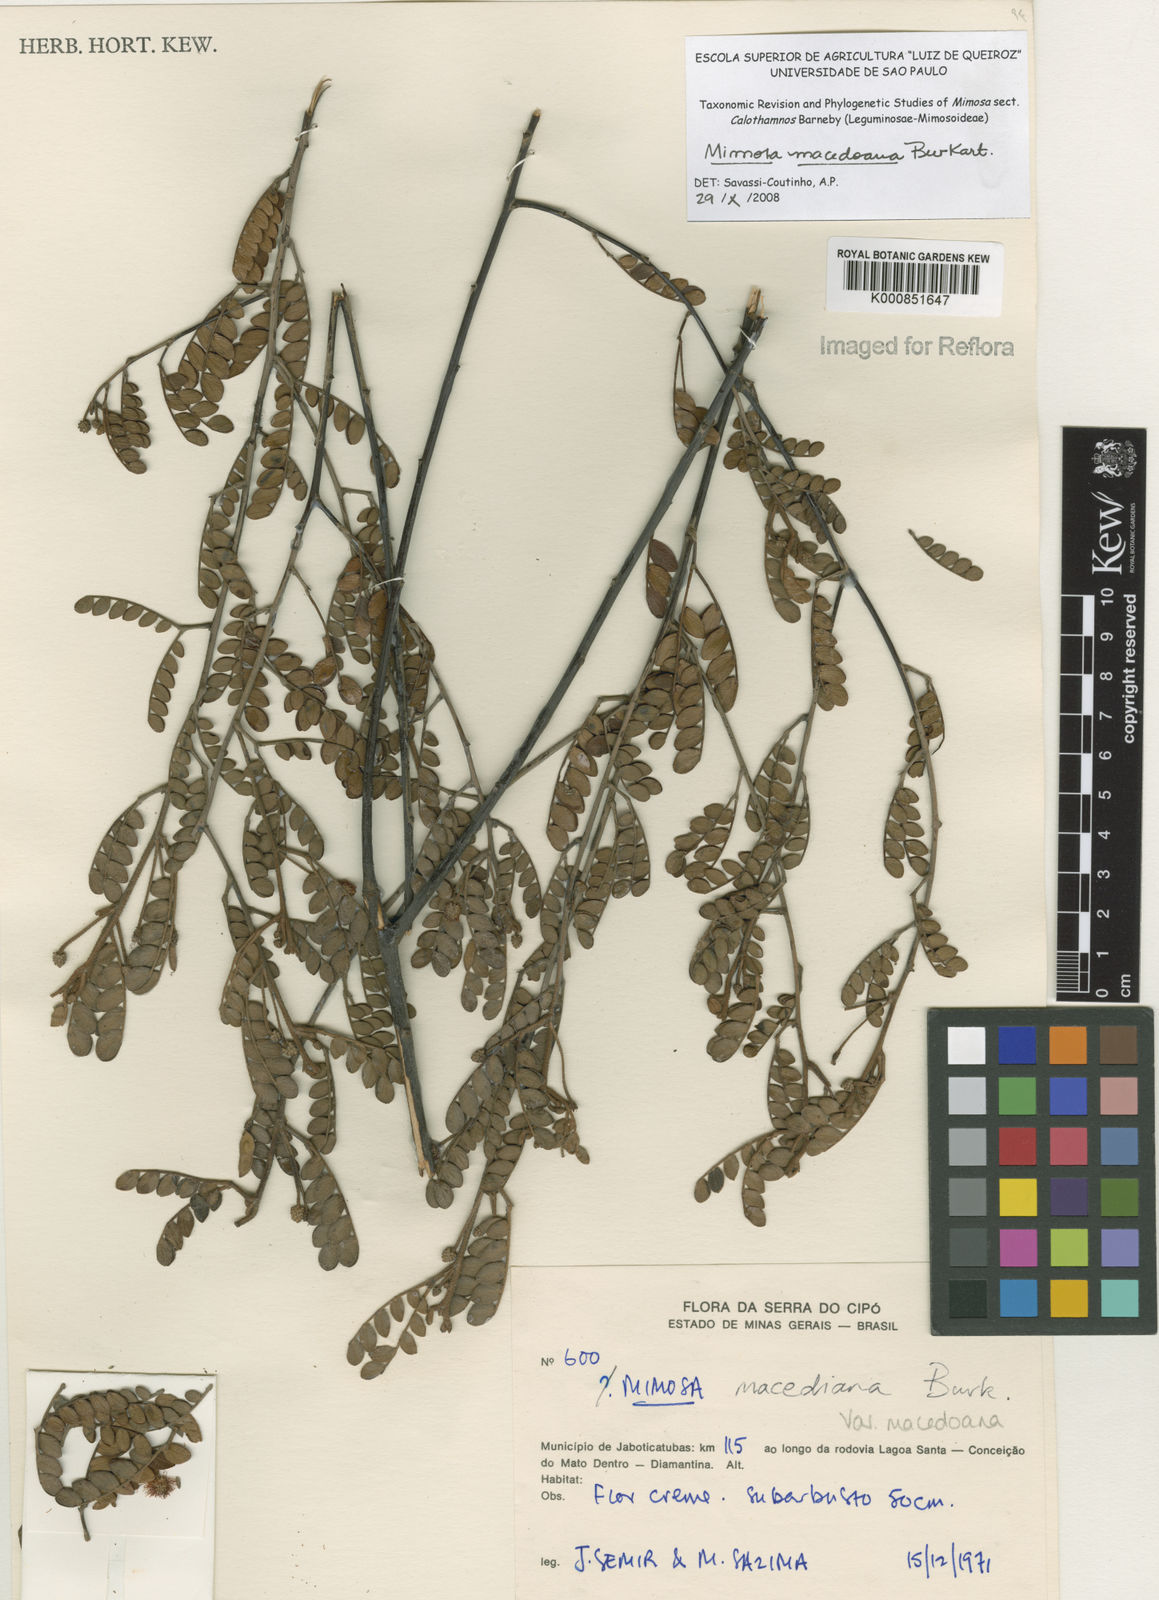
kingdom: Plantae
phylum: Tracheophyta
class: Magnoliopsida
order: Fabales
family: Fabaceae
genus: Mimosa
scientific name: Mimosa macedoana
